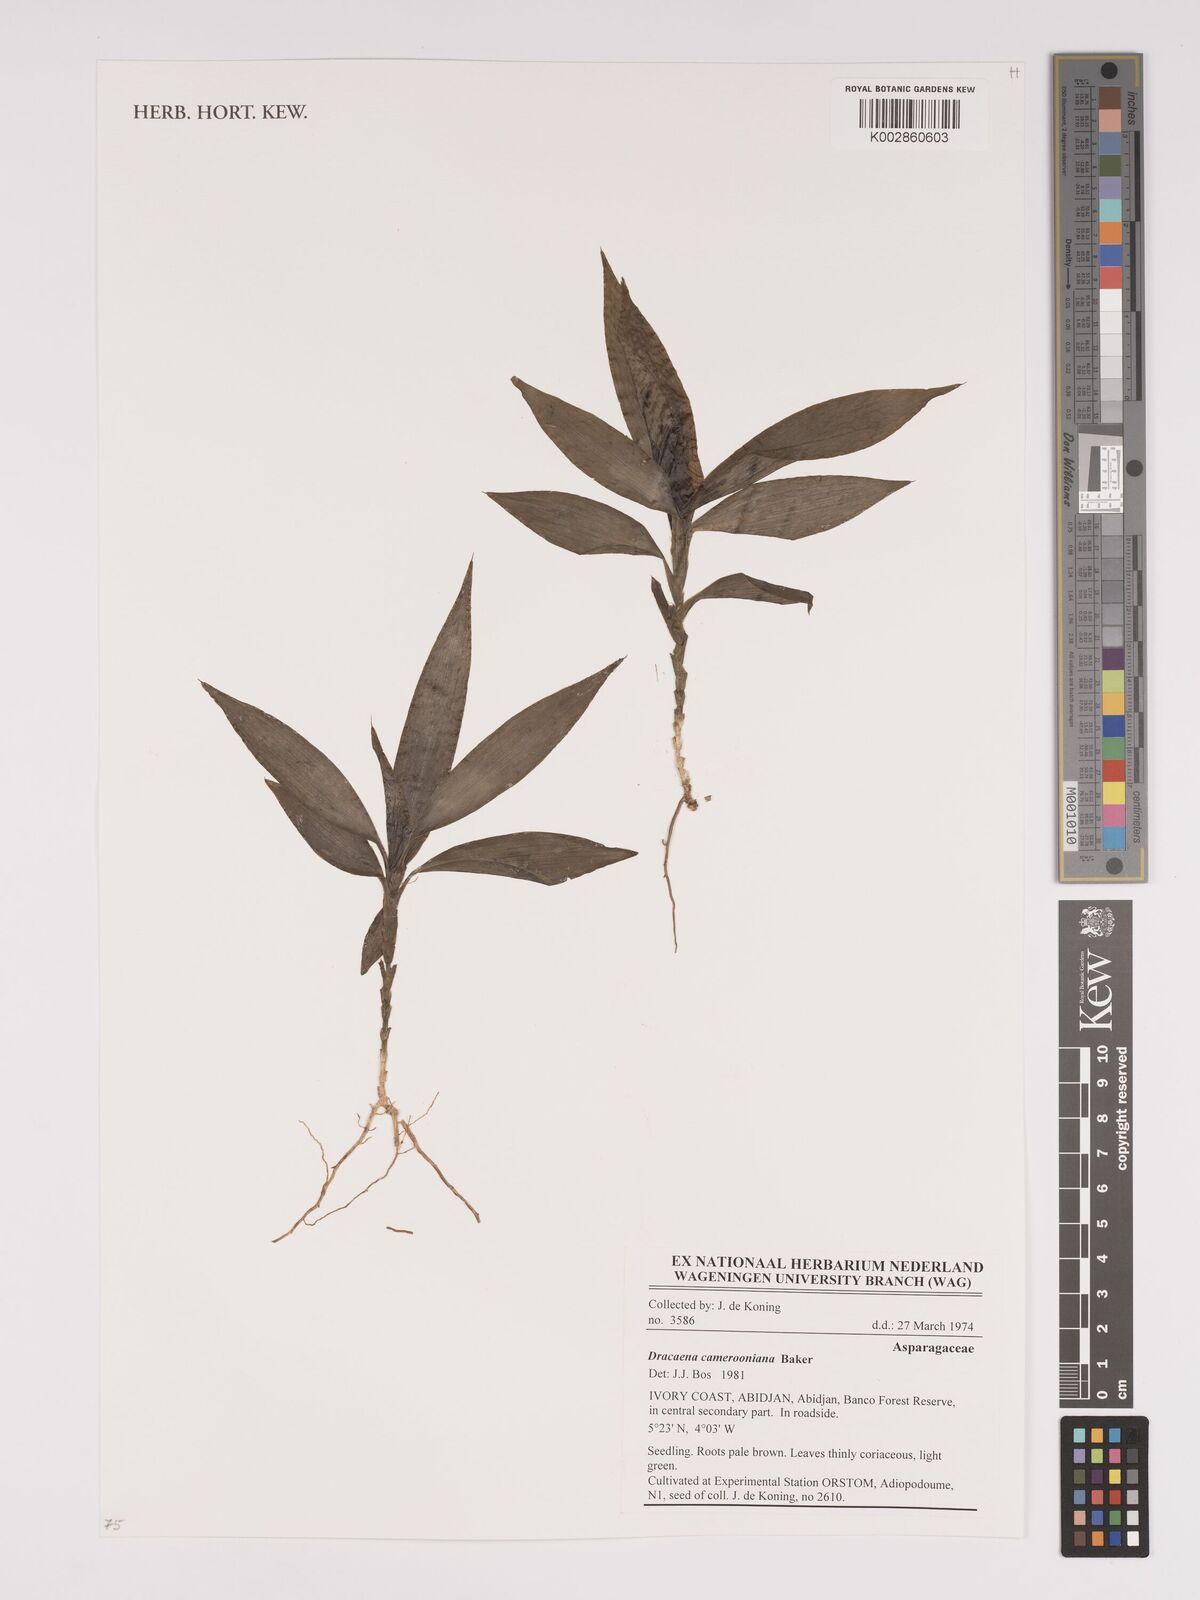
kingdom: Plantae
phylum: Tracheophyta
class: Liliopsida
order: Asparagales
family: Asparagaceae
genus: Dracaena
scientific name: Dracaena camerooniana
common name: Dragon tree
